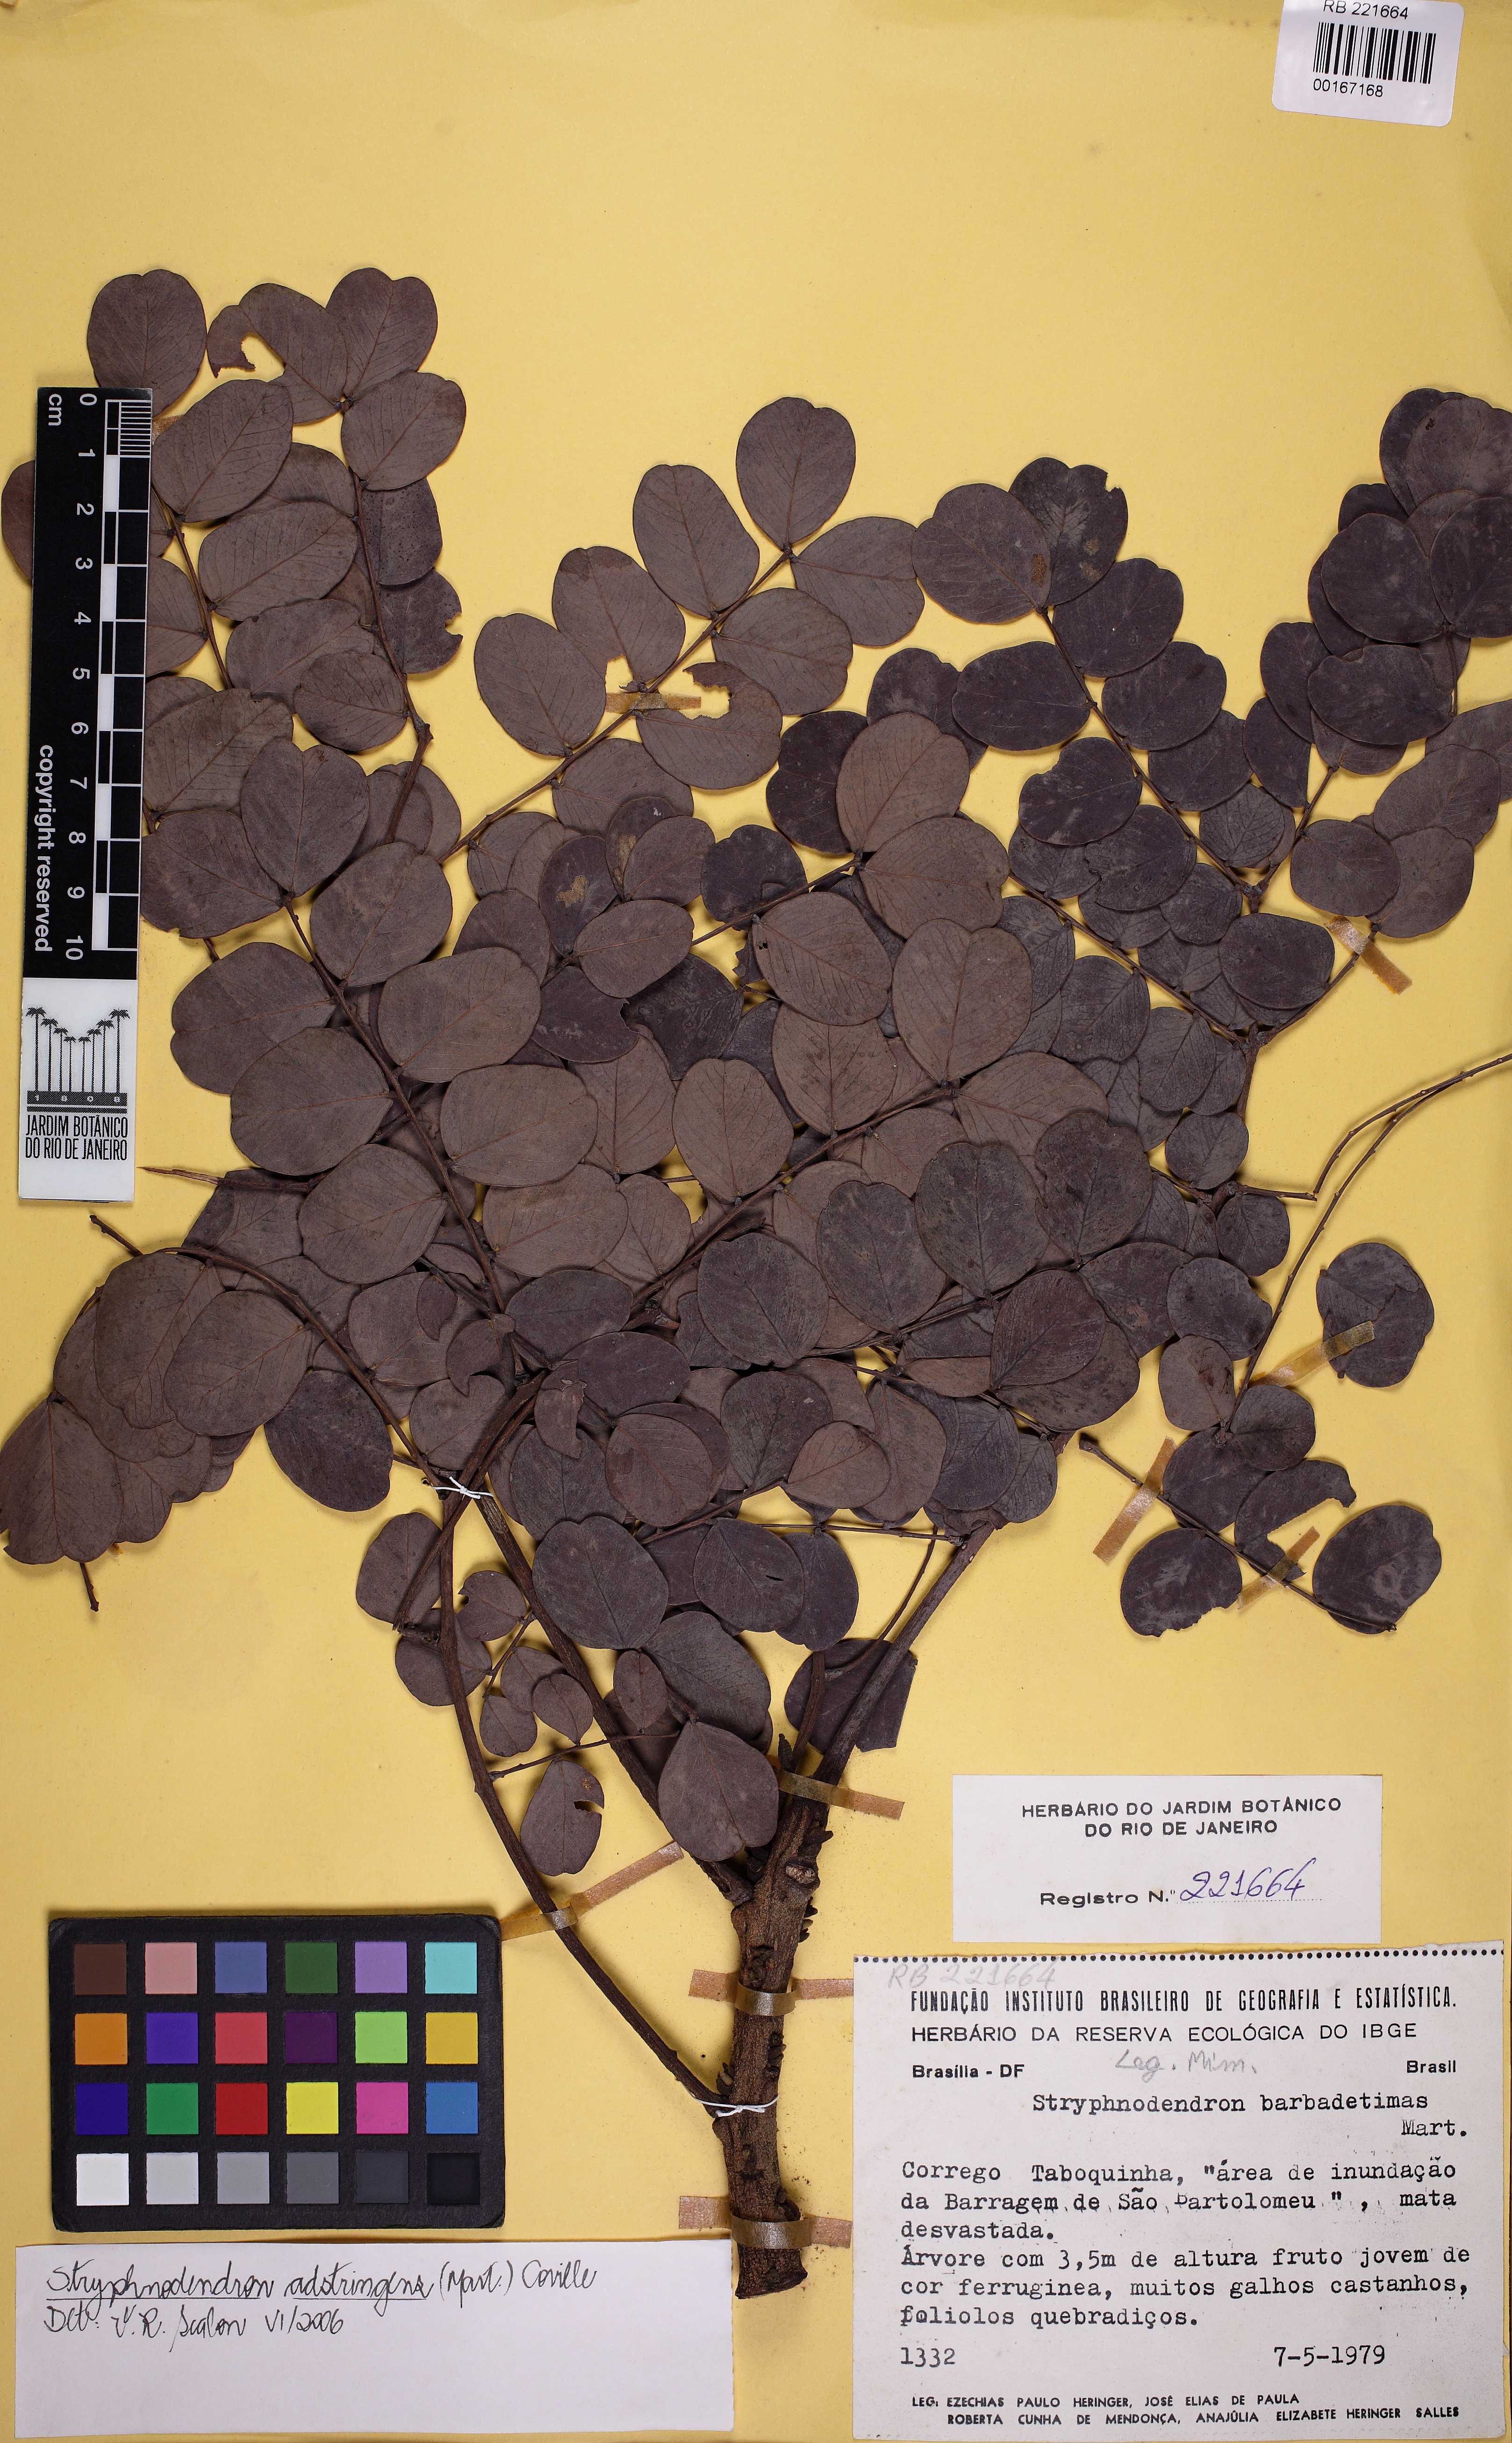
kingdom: Plantae
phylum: Tracheophyta
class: Magnoliopsida
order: Fabales
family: Fabaceae
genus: Stryphnodendron
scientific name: Stryphnodendron adstringens
